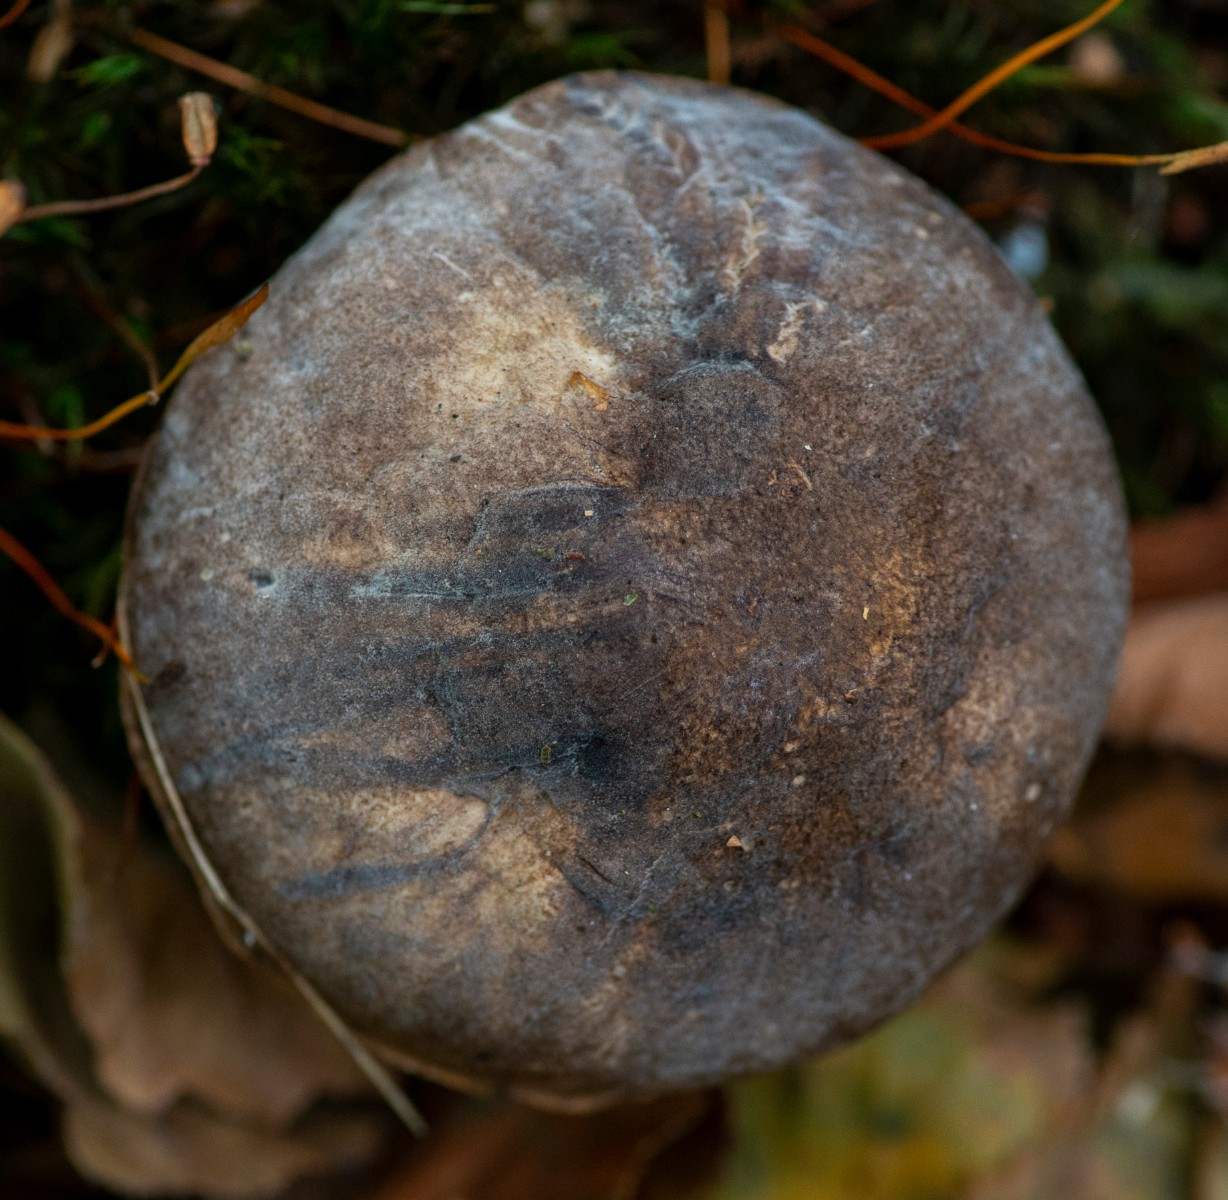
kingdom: Fungi
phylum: Basidiomycota
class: Agaricomycetes
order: Boletales
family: Boletaceae
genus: Leccinum
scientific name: Leccinum variicolor
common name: flammet skælrørhat
